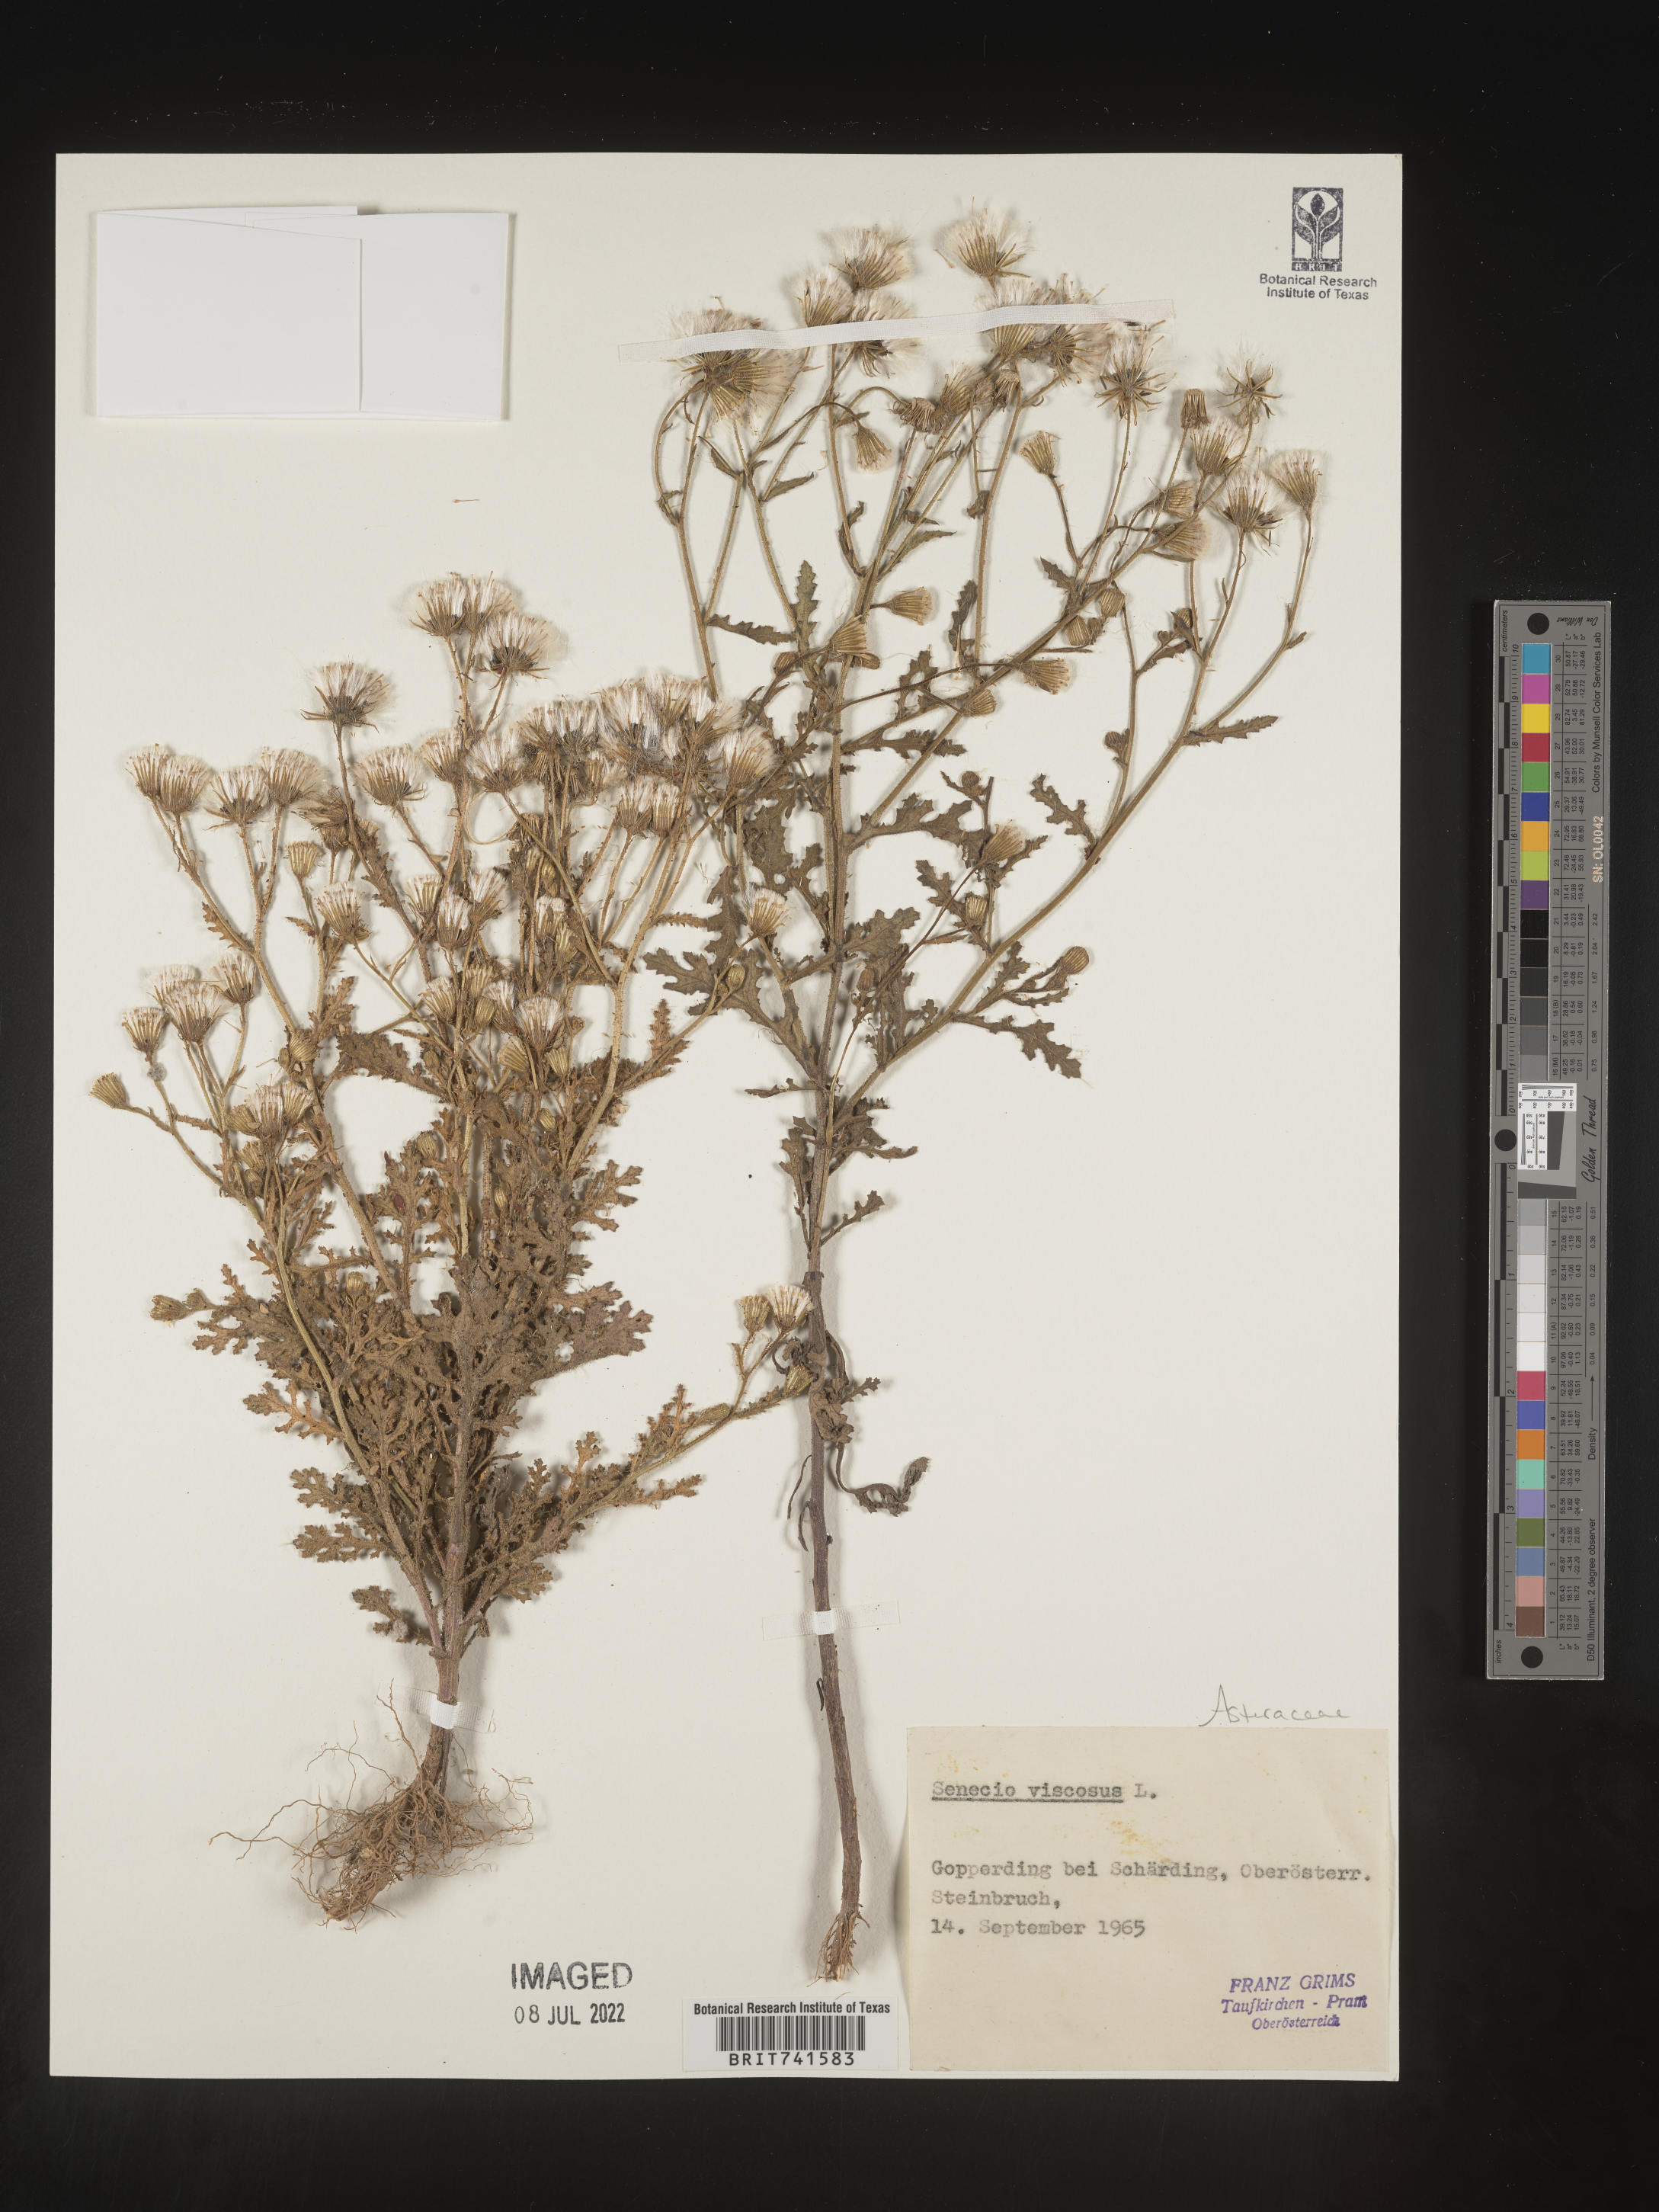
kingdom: Plantae
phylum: Tracheophyta
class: Magnoliopsida
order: Asterales
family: Asteraceae
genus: Senecio
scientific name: Senecio
